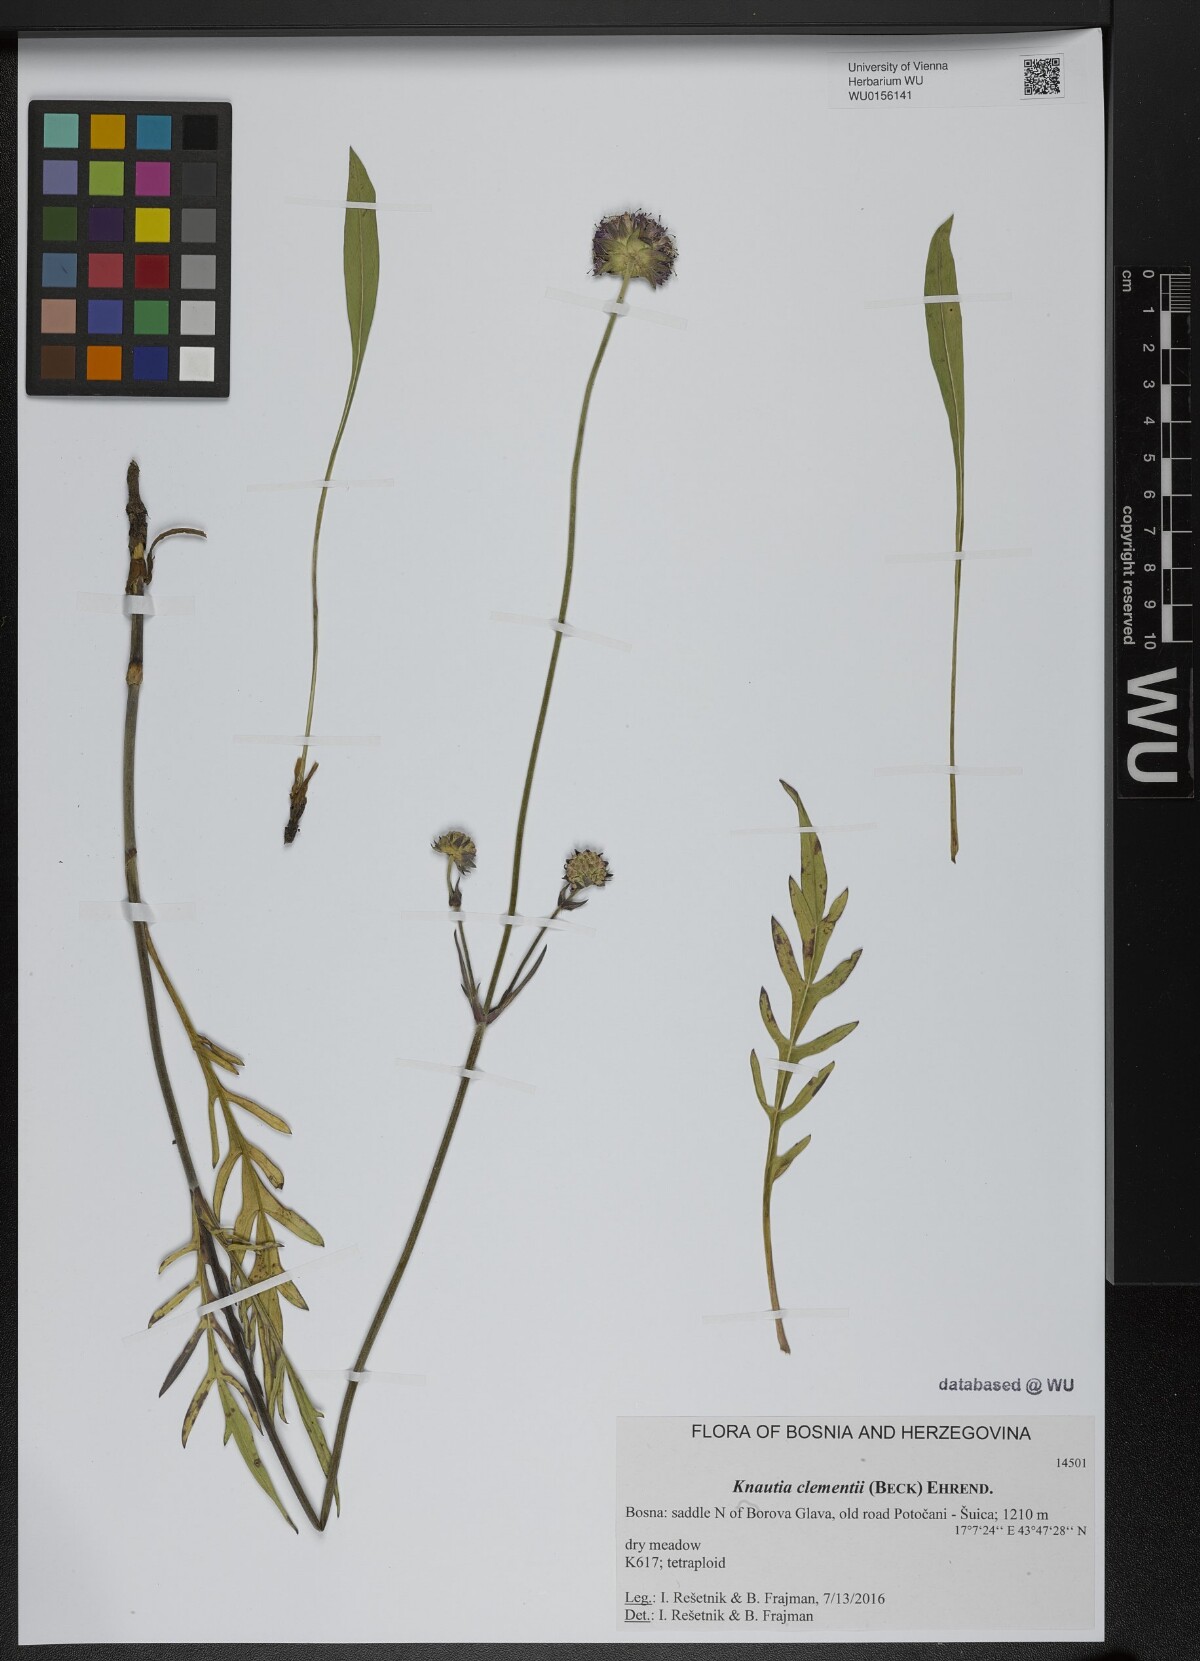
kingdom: Plantae
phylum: Tracheophyta
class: Magnoliopsida
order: Dipsacales
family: Caprifoliaceae
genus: Knautia
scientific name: Knautia clementii
